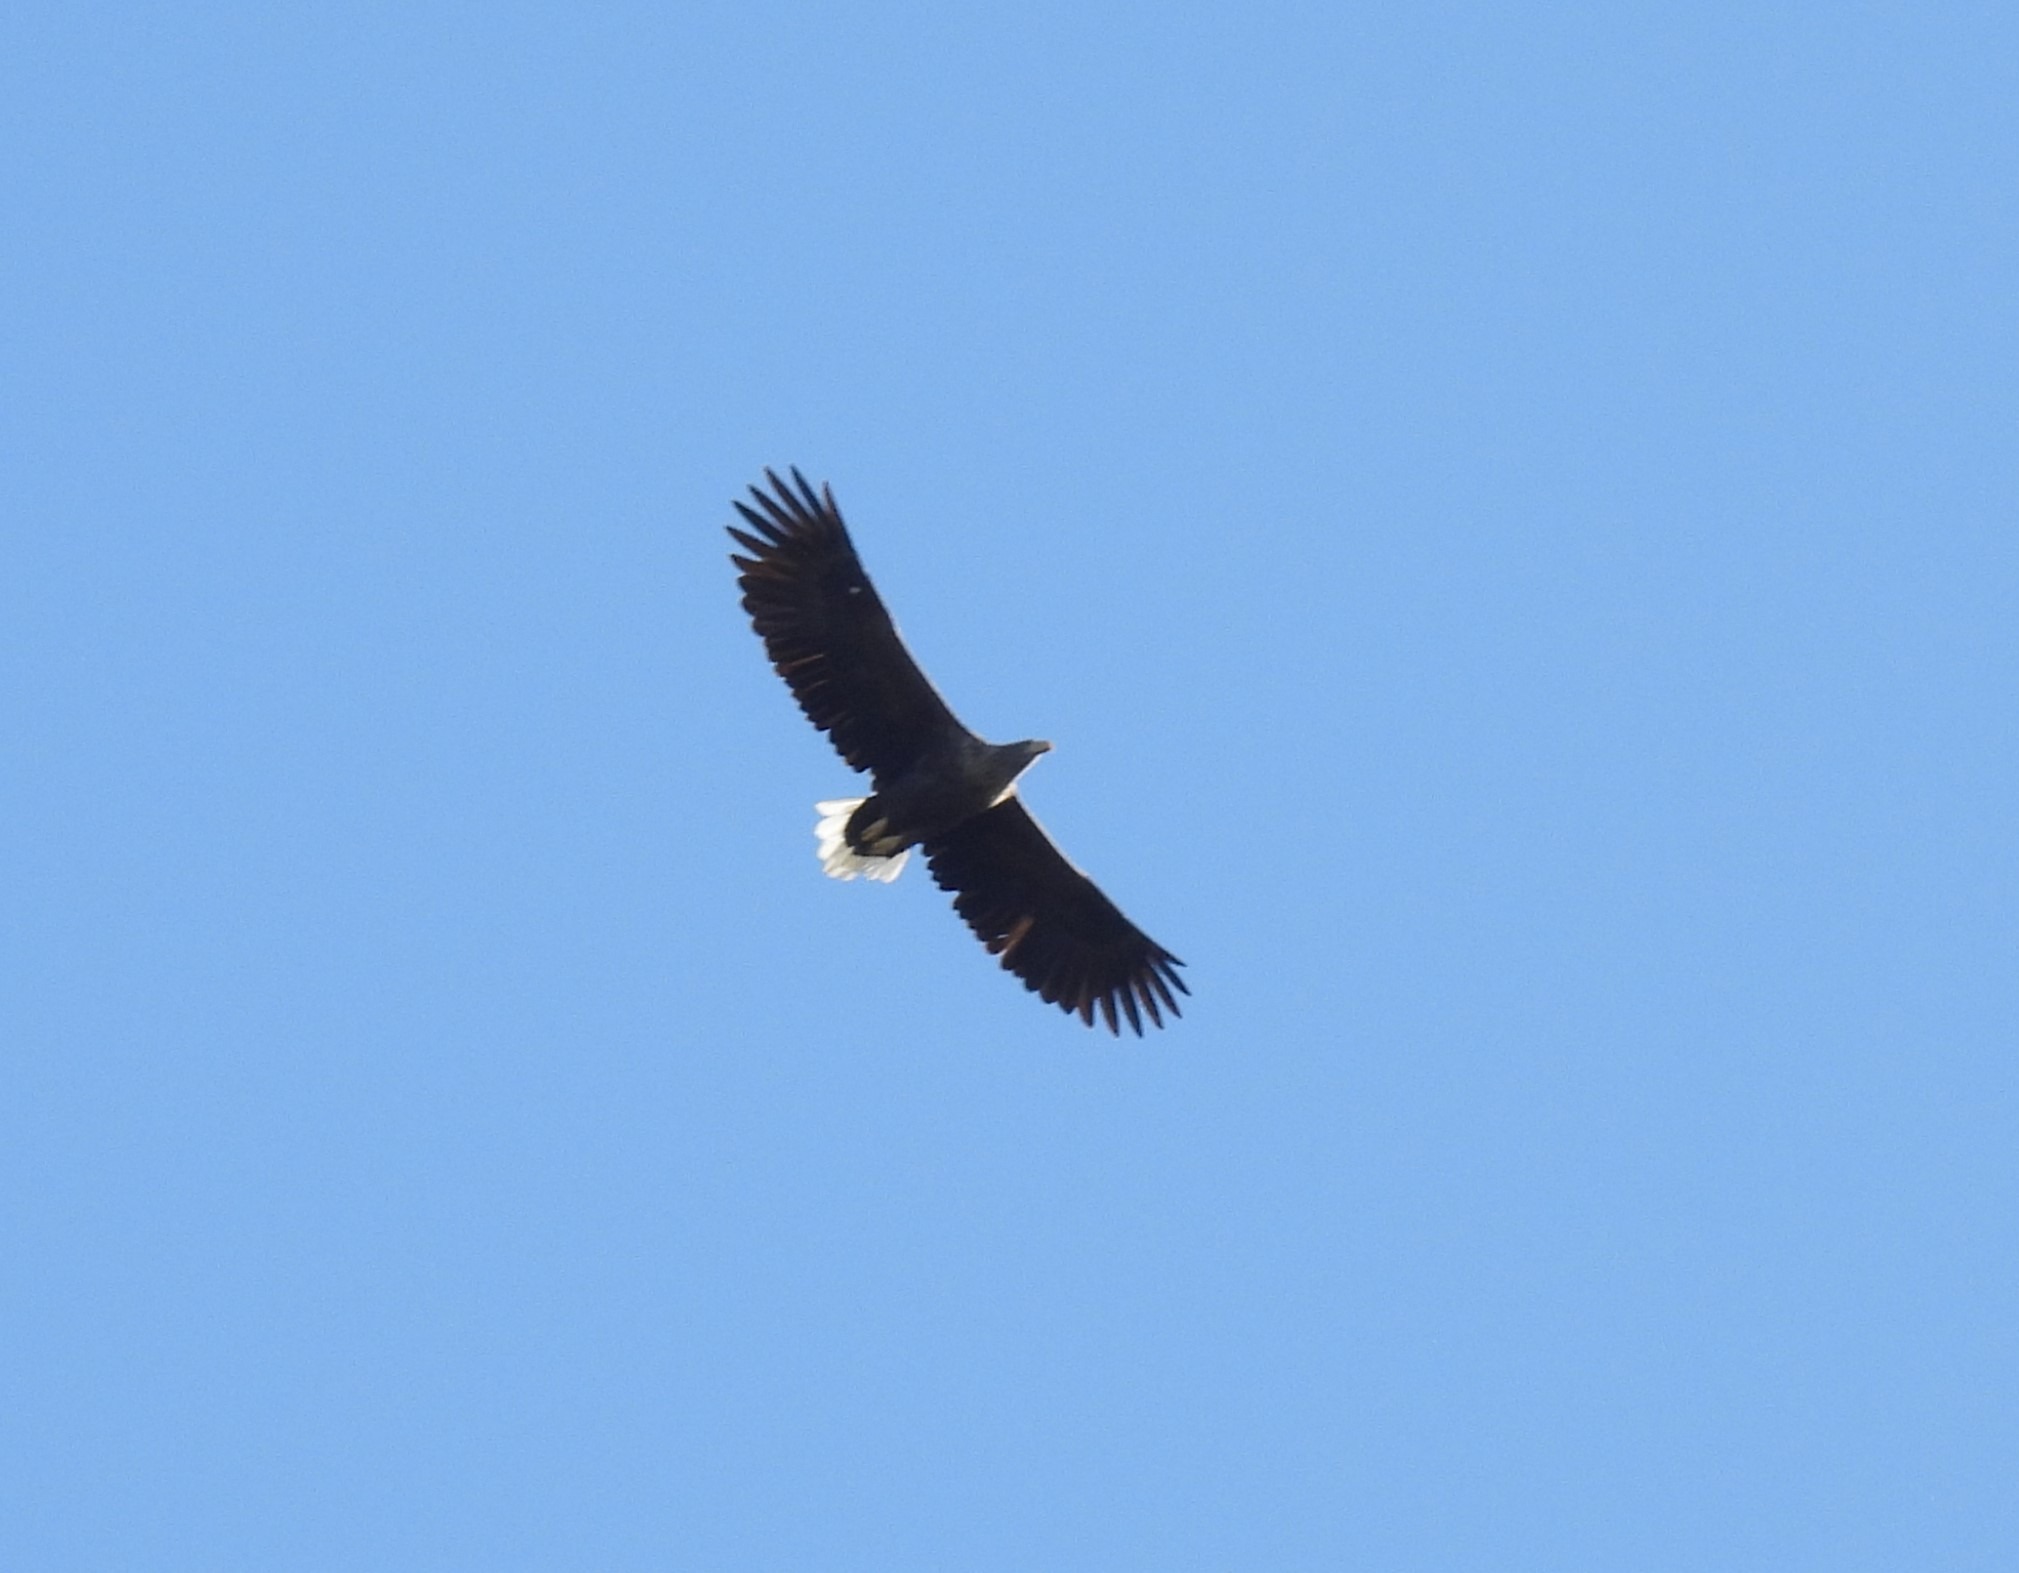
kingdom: Animalia
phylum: Chordata
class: Aves
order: Accipitriformes
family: Accipitridae
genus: Haliaeetus
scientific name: Haliaeetus albicilla
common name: Havørn
